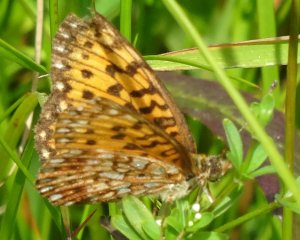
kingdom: Animalia
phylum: Arthropoda
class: Insecta
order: Lepidoptera
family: Nymphalidae
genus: Boloria
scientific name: Boloria selene
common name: Silver-bordered Fritillary
